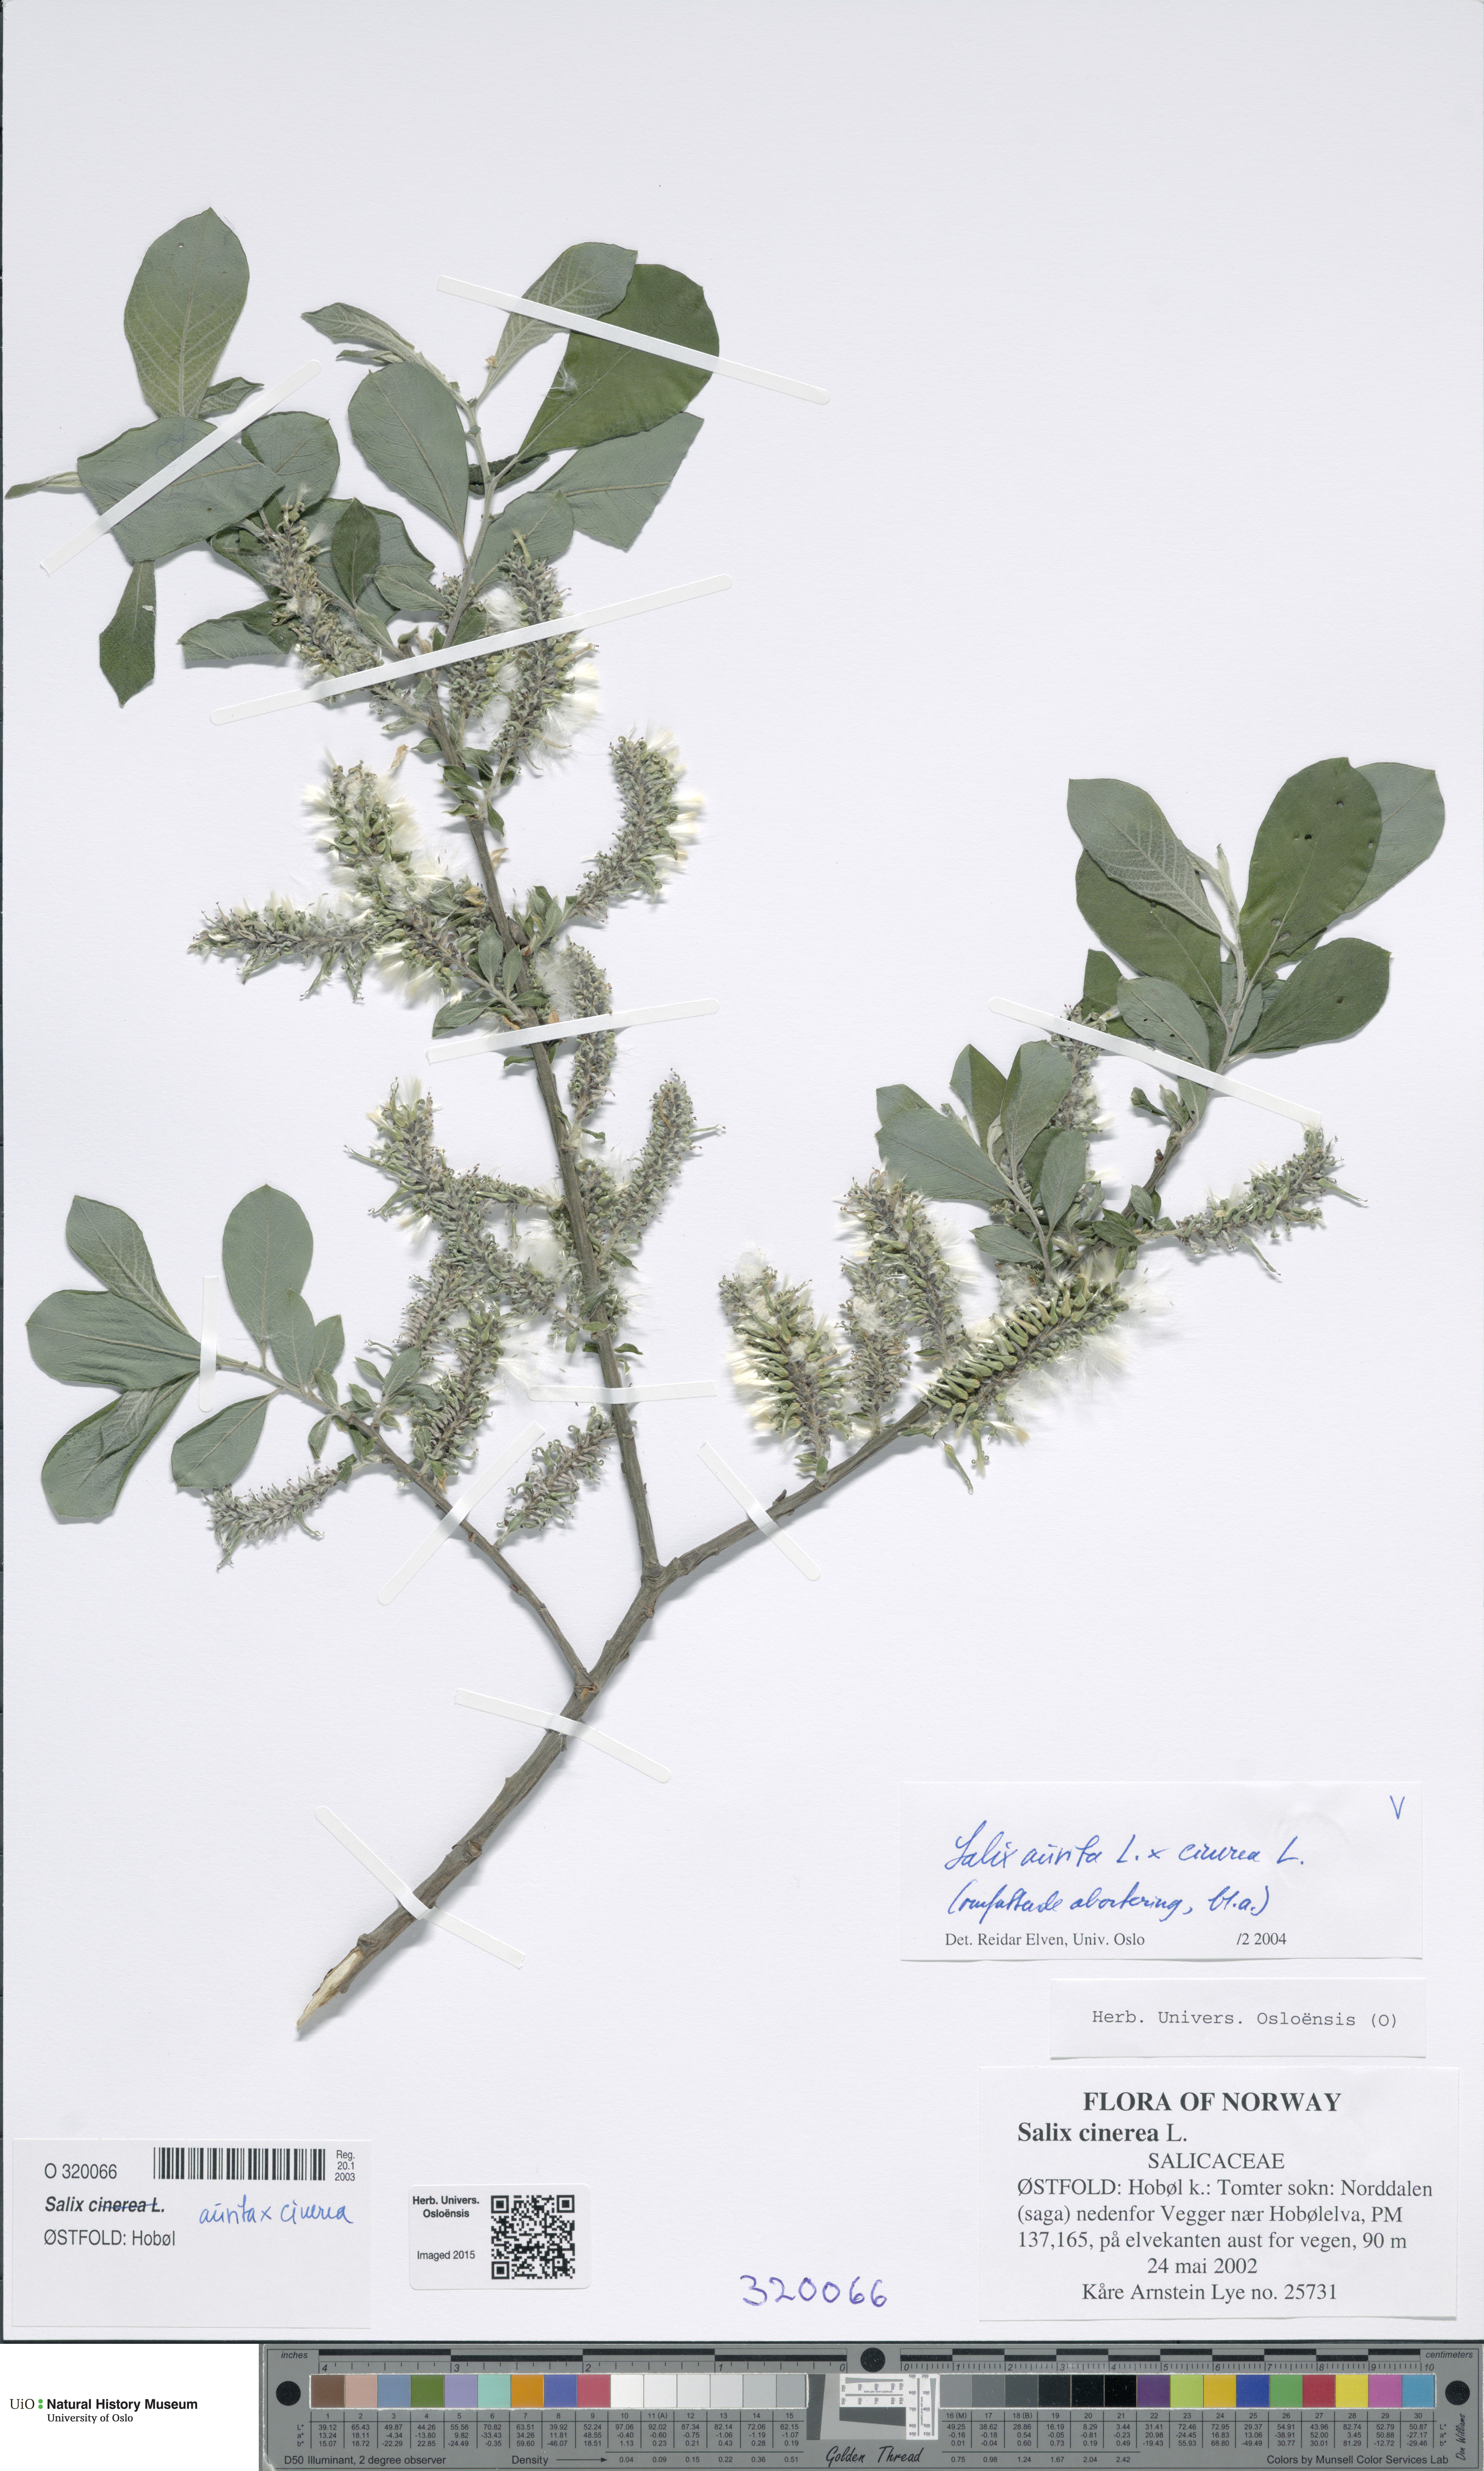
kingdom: Plantae
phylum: Tracheophyta
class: Magnoliopsida
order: Malpighiales
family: Salicaceae
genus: Salix
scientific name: Salix
